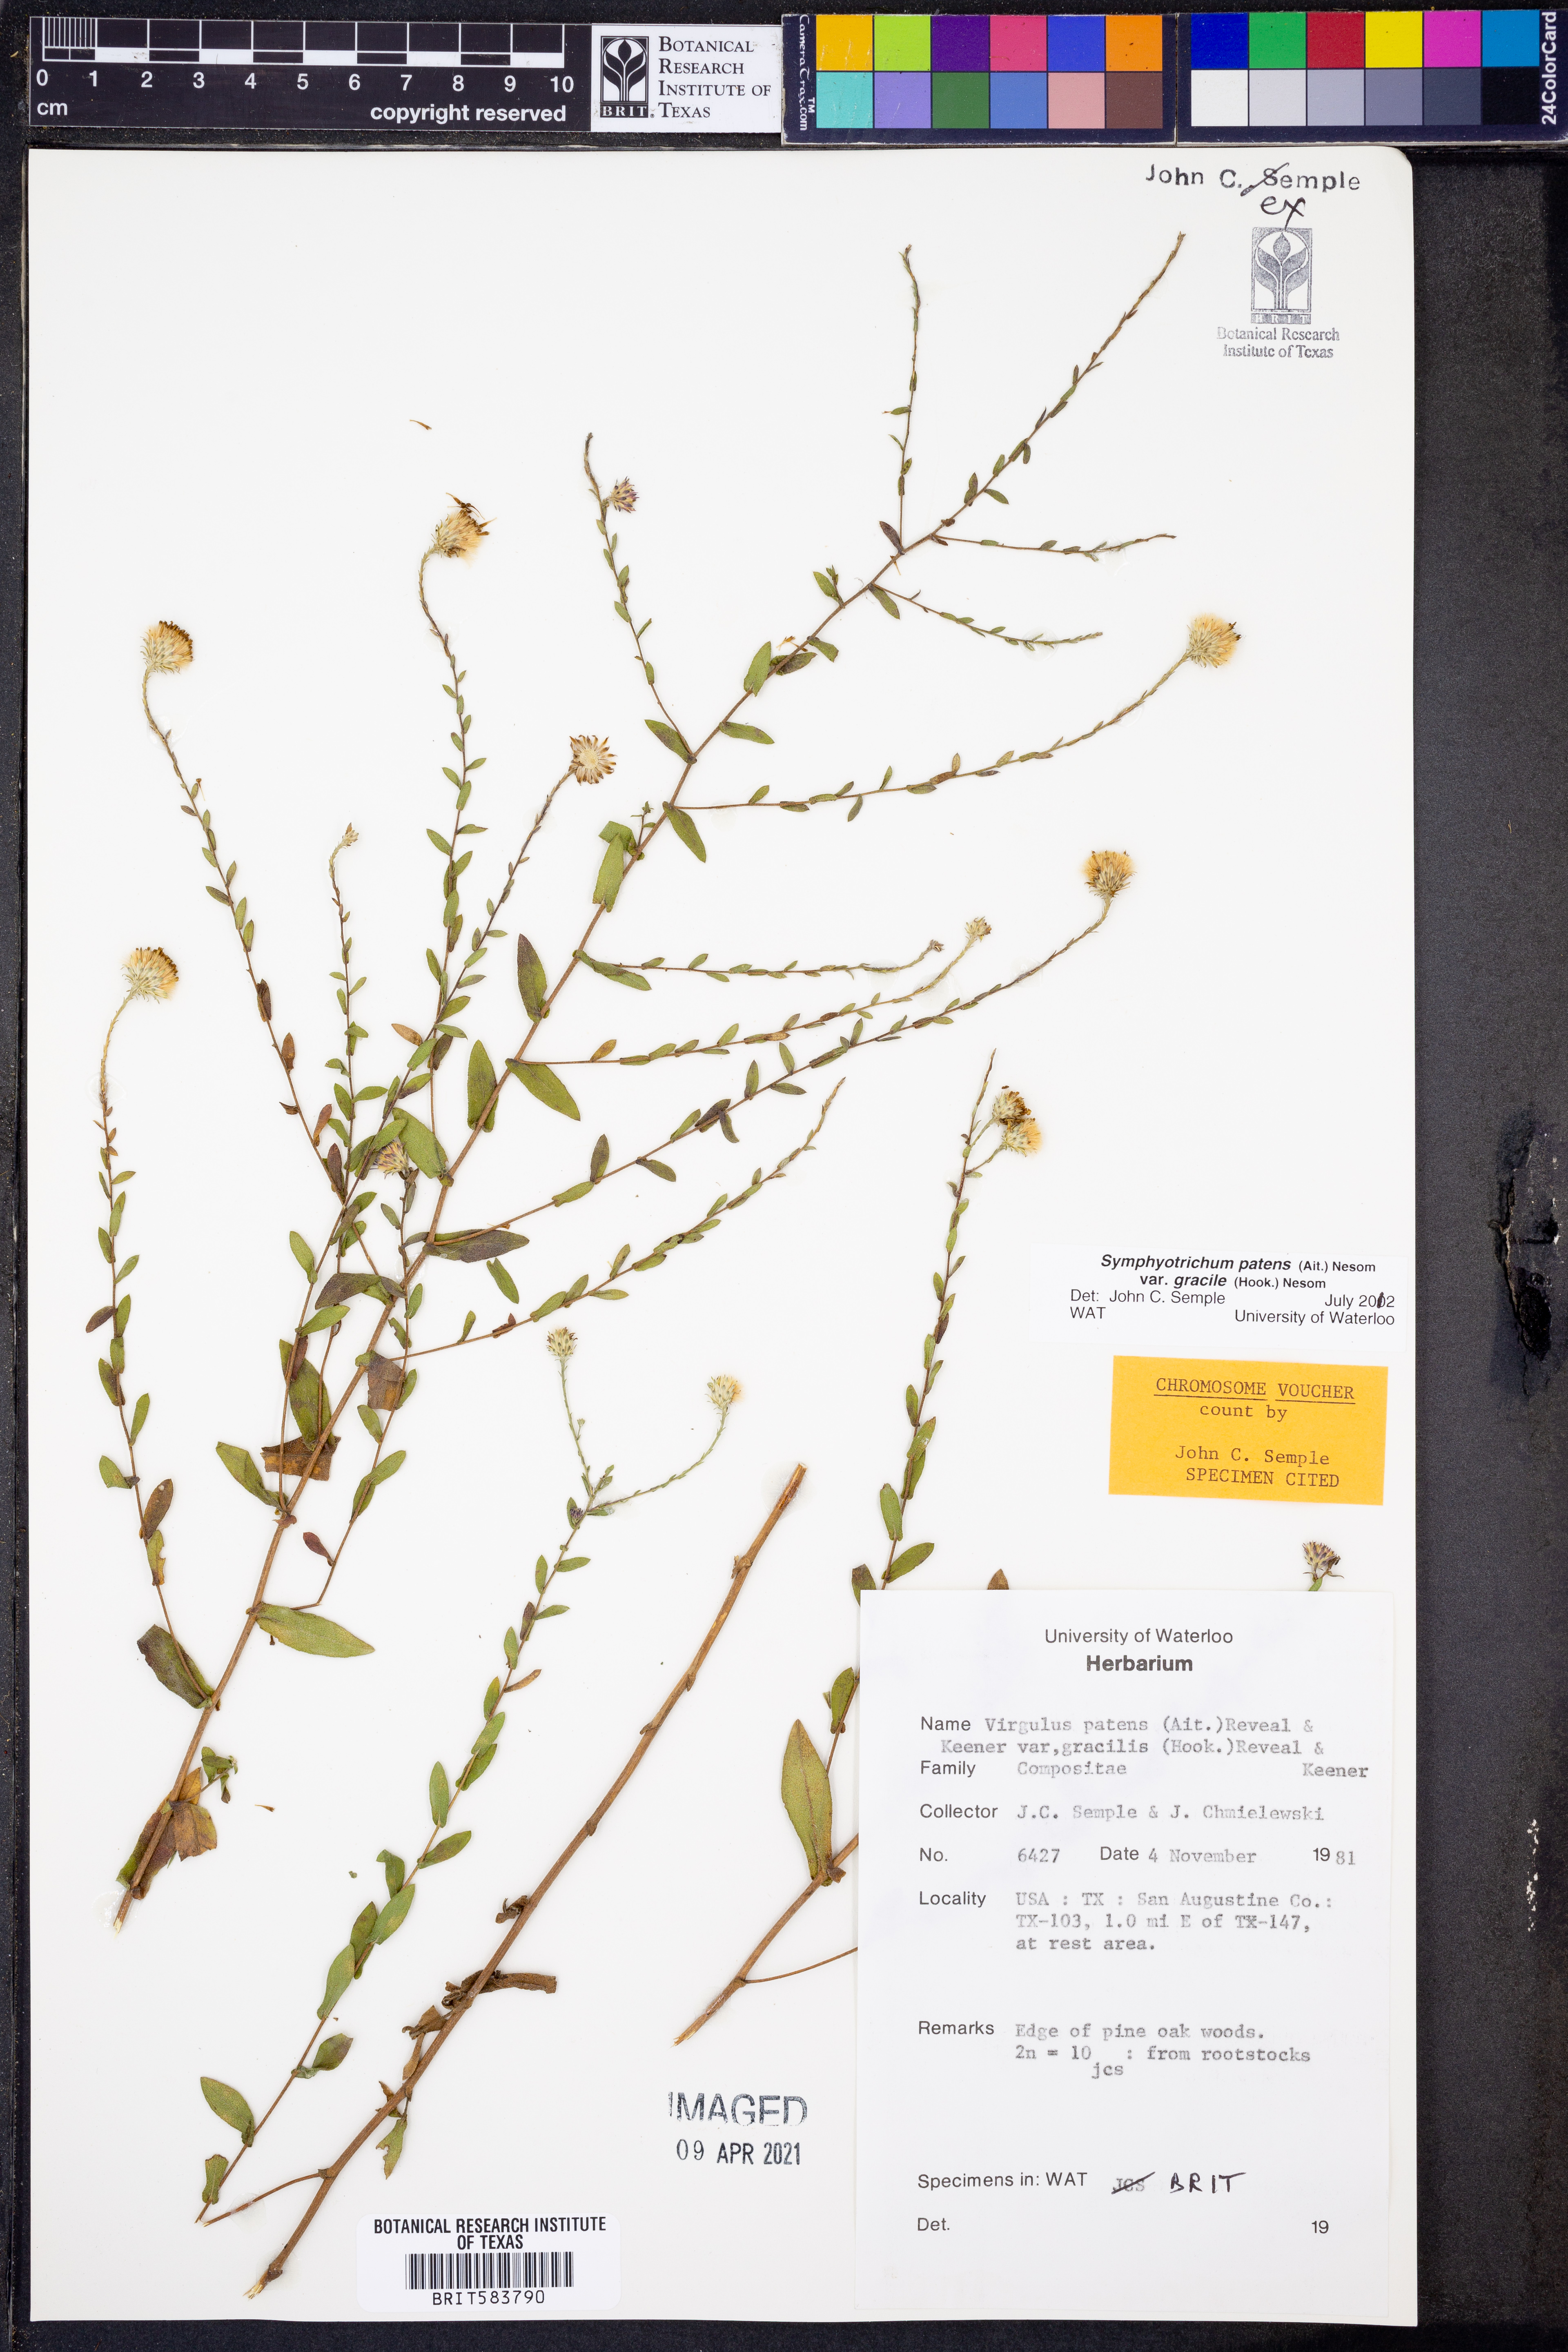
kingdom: Plantae
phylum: Tracheophyta
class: Magnoliopsida
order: Asterales
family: Asteraceae
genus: Symphyotrichum
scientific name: Symphyotrichum patens
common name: Late purple aster
